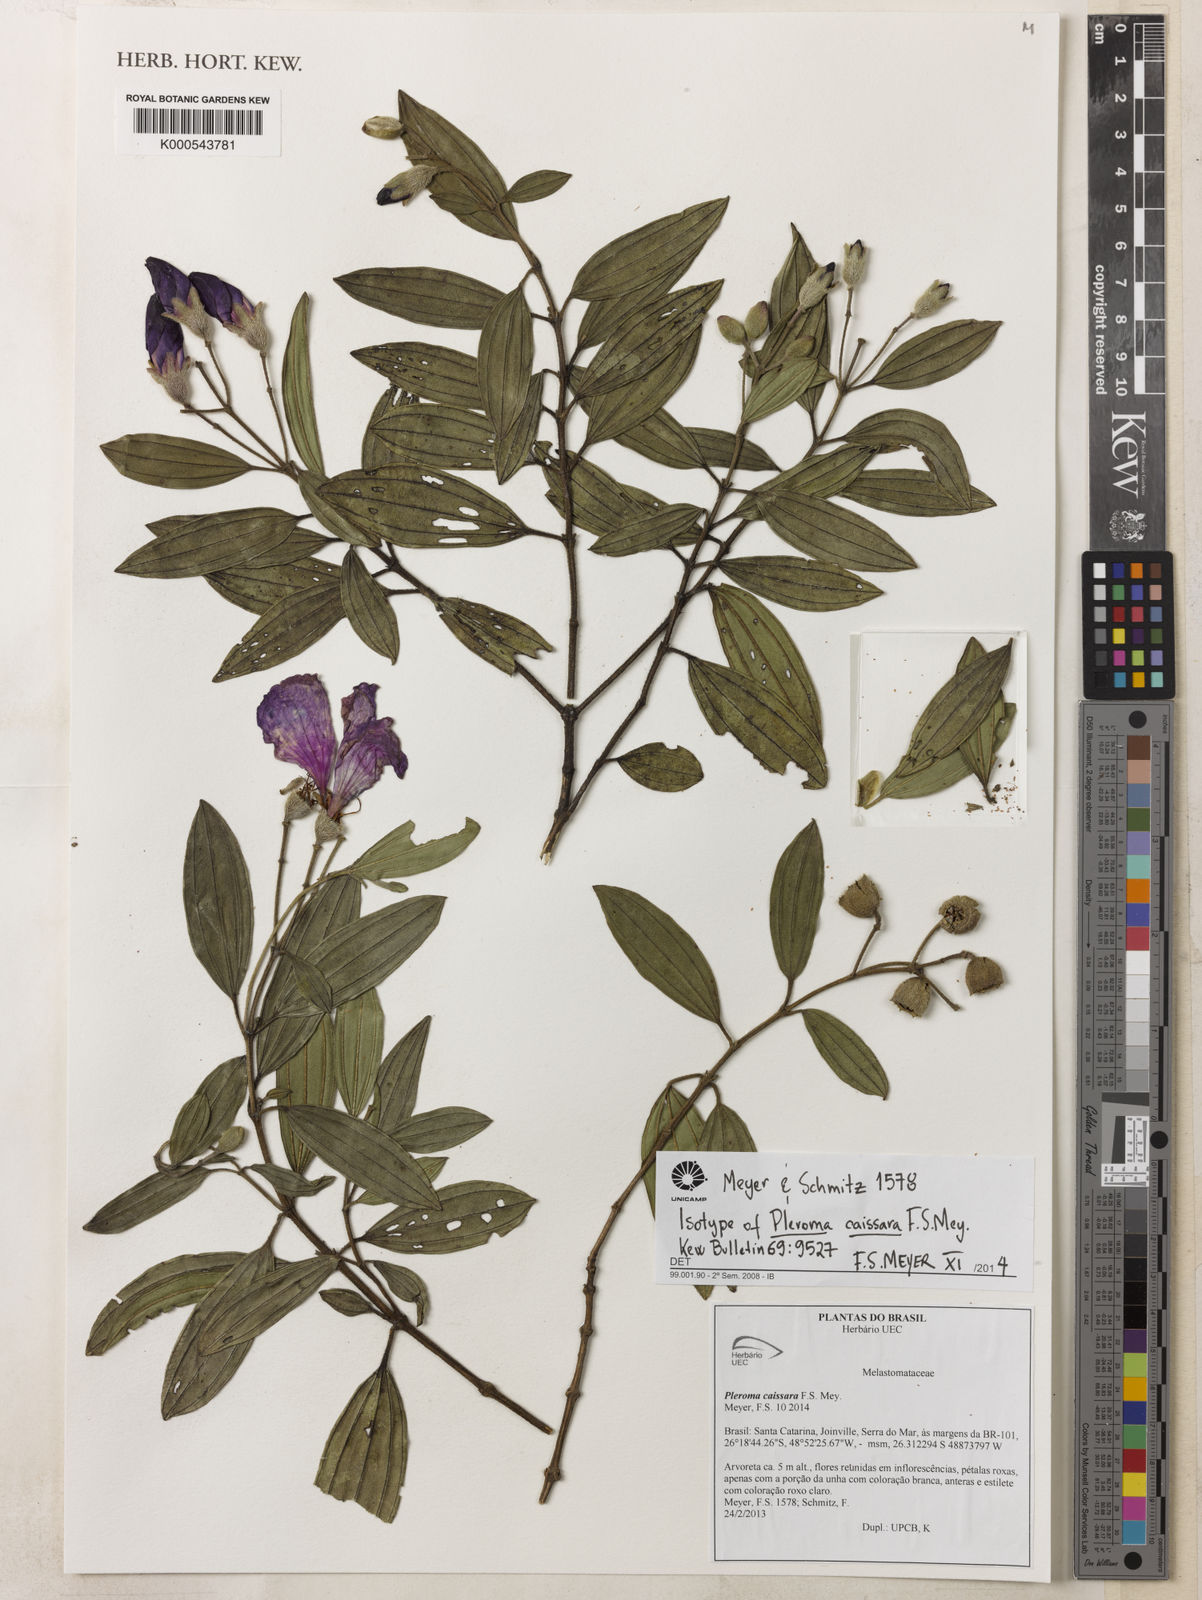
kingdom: Plantae
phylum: Tracheophyta
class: Magnoliopsida
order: Myrtales
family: Melastomataceae
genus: Pleroma
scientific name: Pleroma caissara
